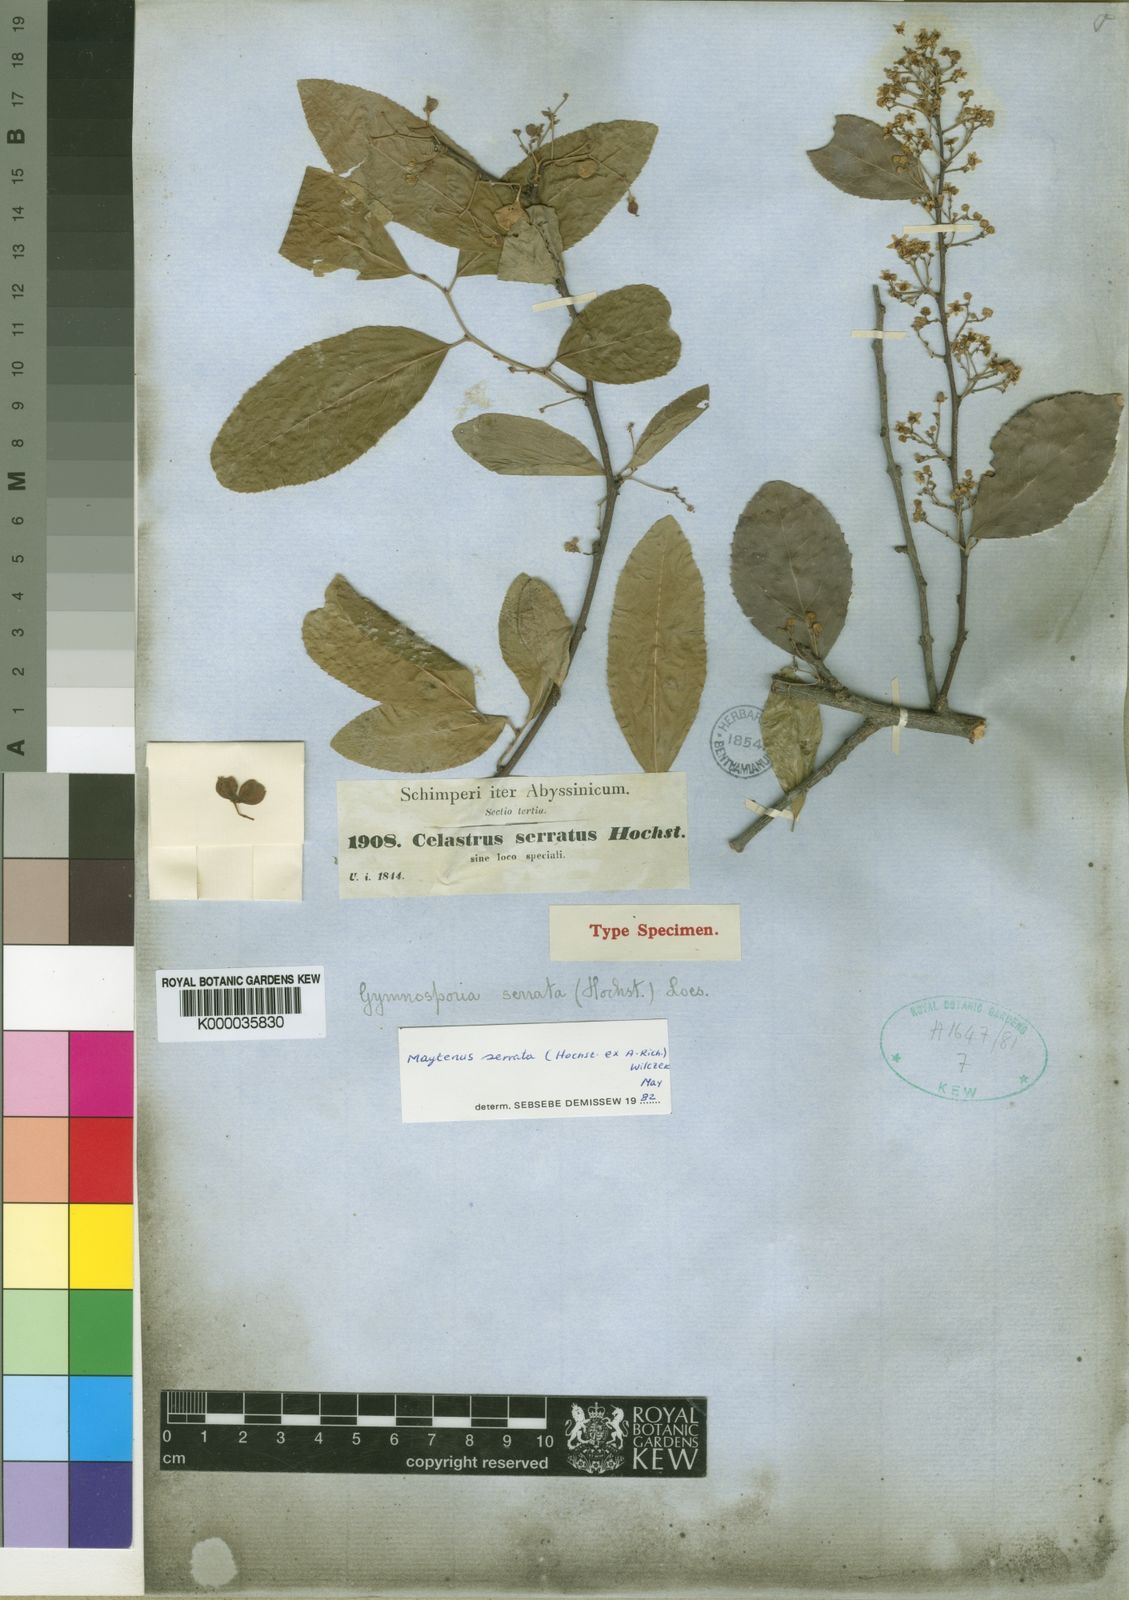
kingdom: Plantae
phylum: Tracheophyta
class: Magnoliopsida
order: Celastrales
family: Celastraceae
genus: Gymnosporia
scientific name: Gymnosporia serrata
